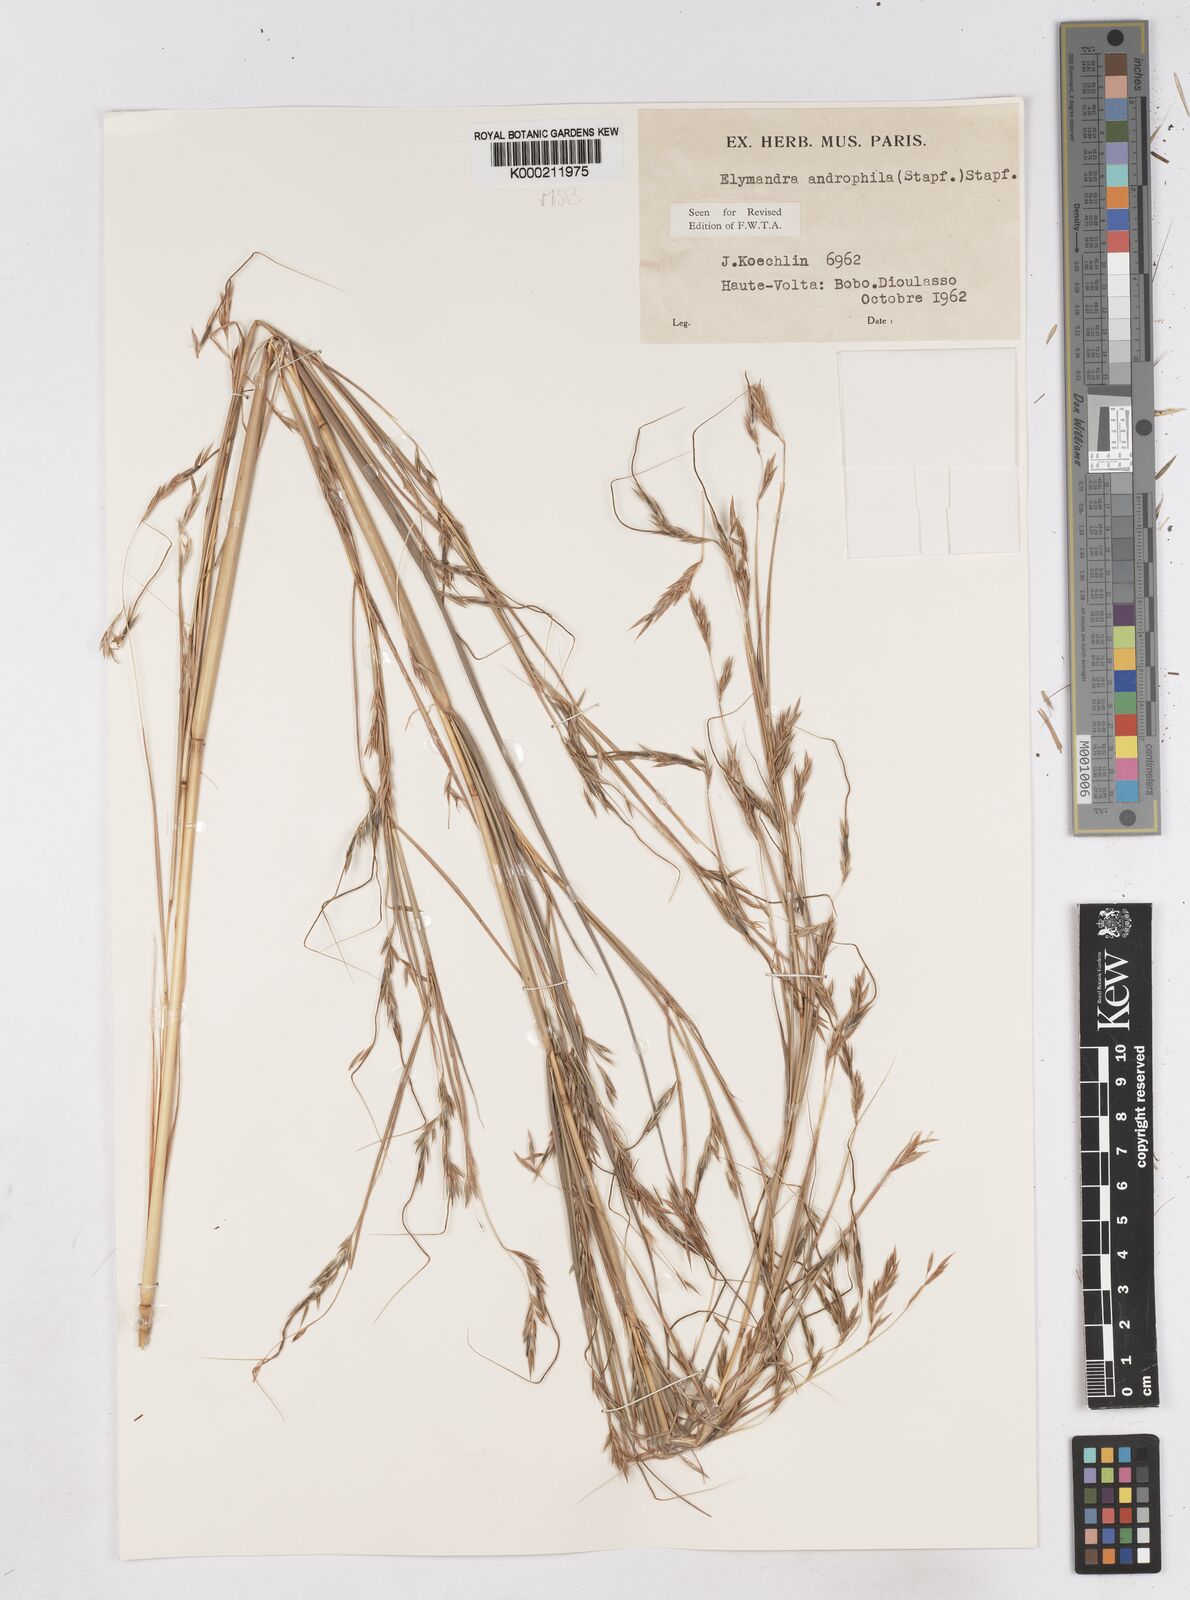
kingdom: Plantae
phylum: Tracheophyta
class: Liliopsida
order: Poales
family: Poaceae
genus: Elymandra
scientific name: Elymandra androphila
